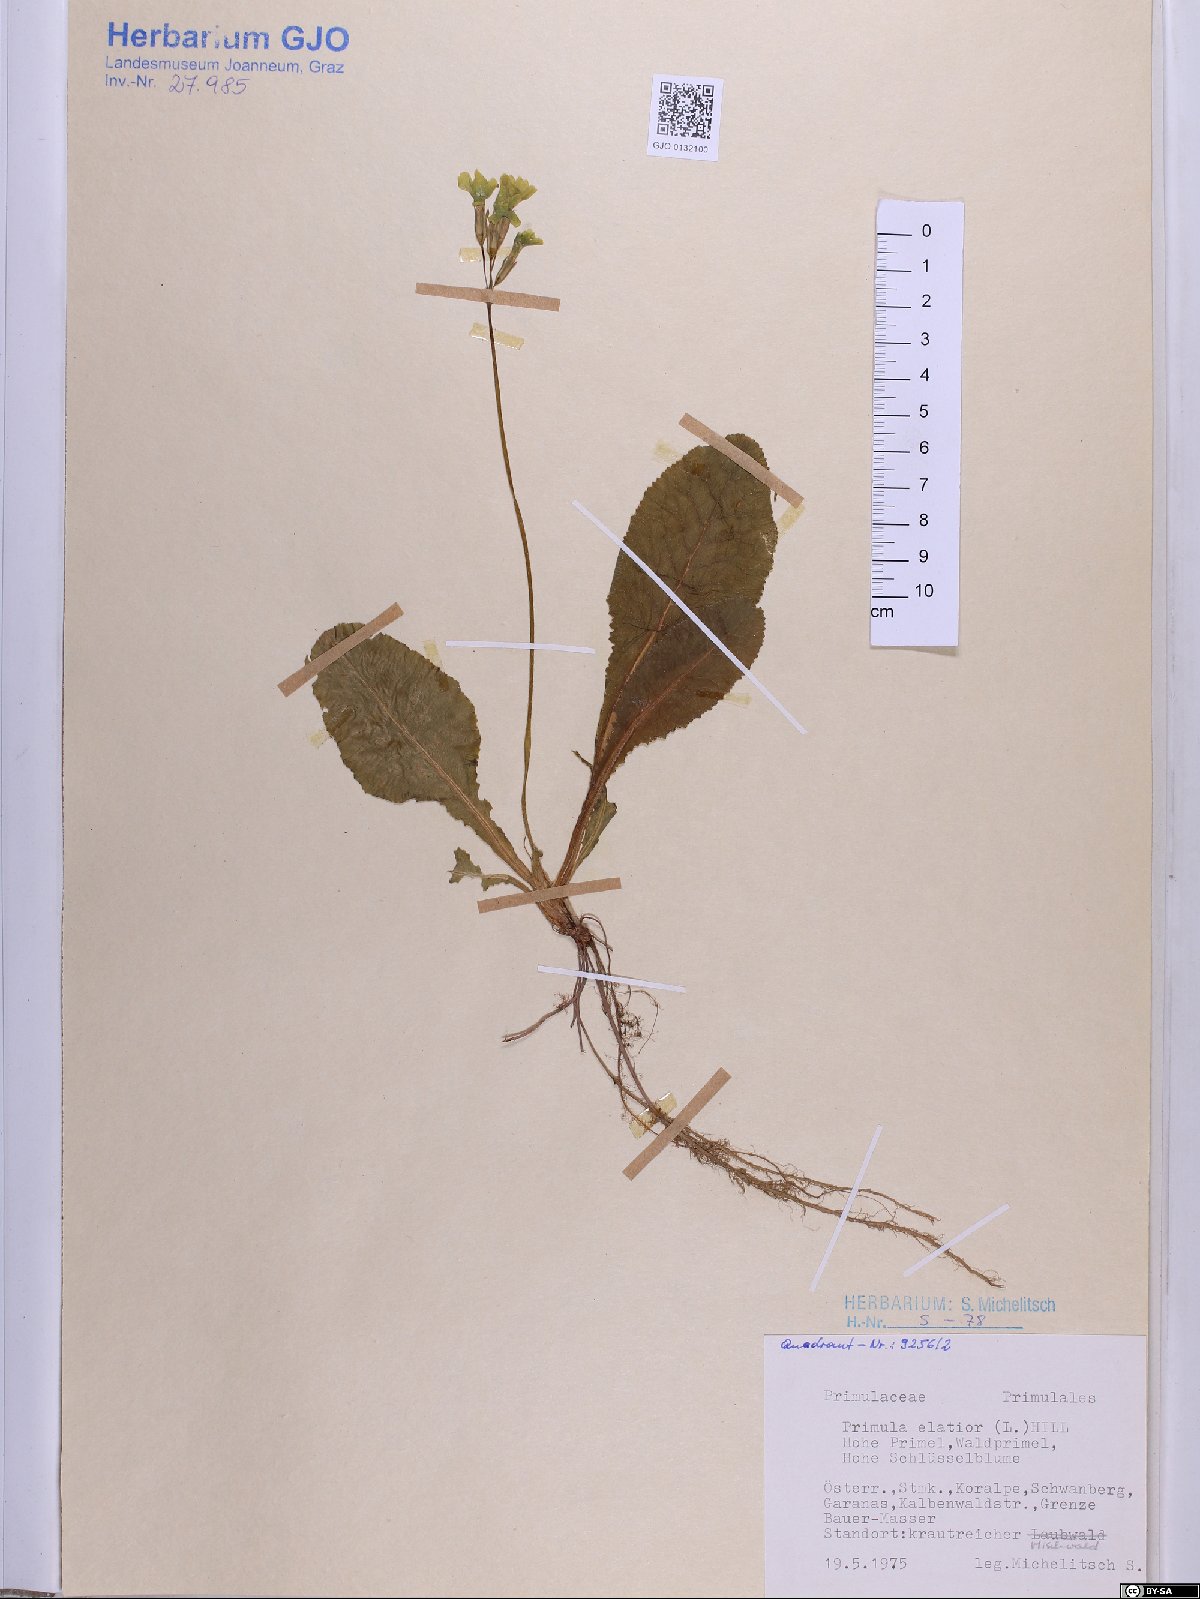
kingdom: Plantae
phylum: Tracheophyta
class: Magnoliopsida
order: Ericales
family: Primulaceae
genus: Primula
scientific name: Primula elatior
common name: Oxlip
